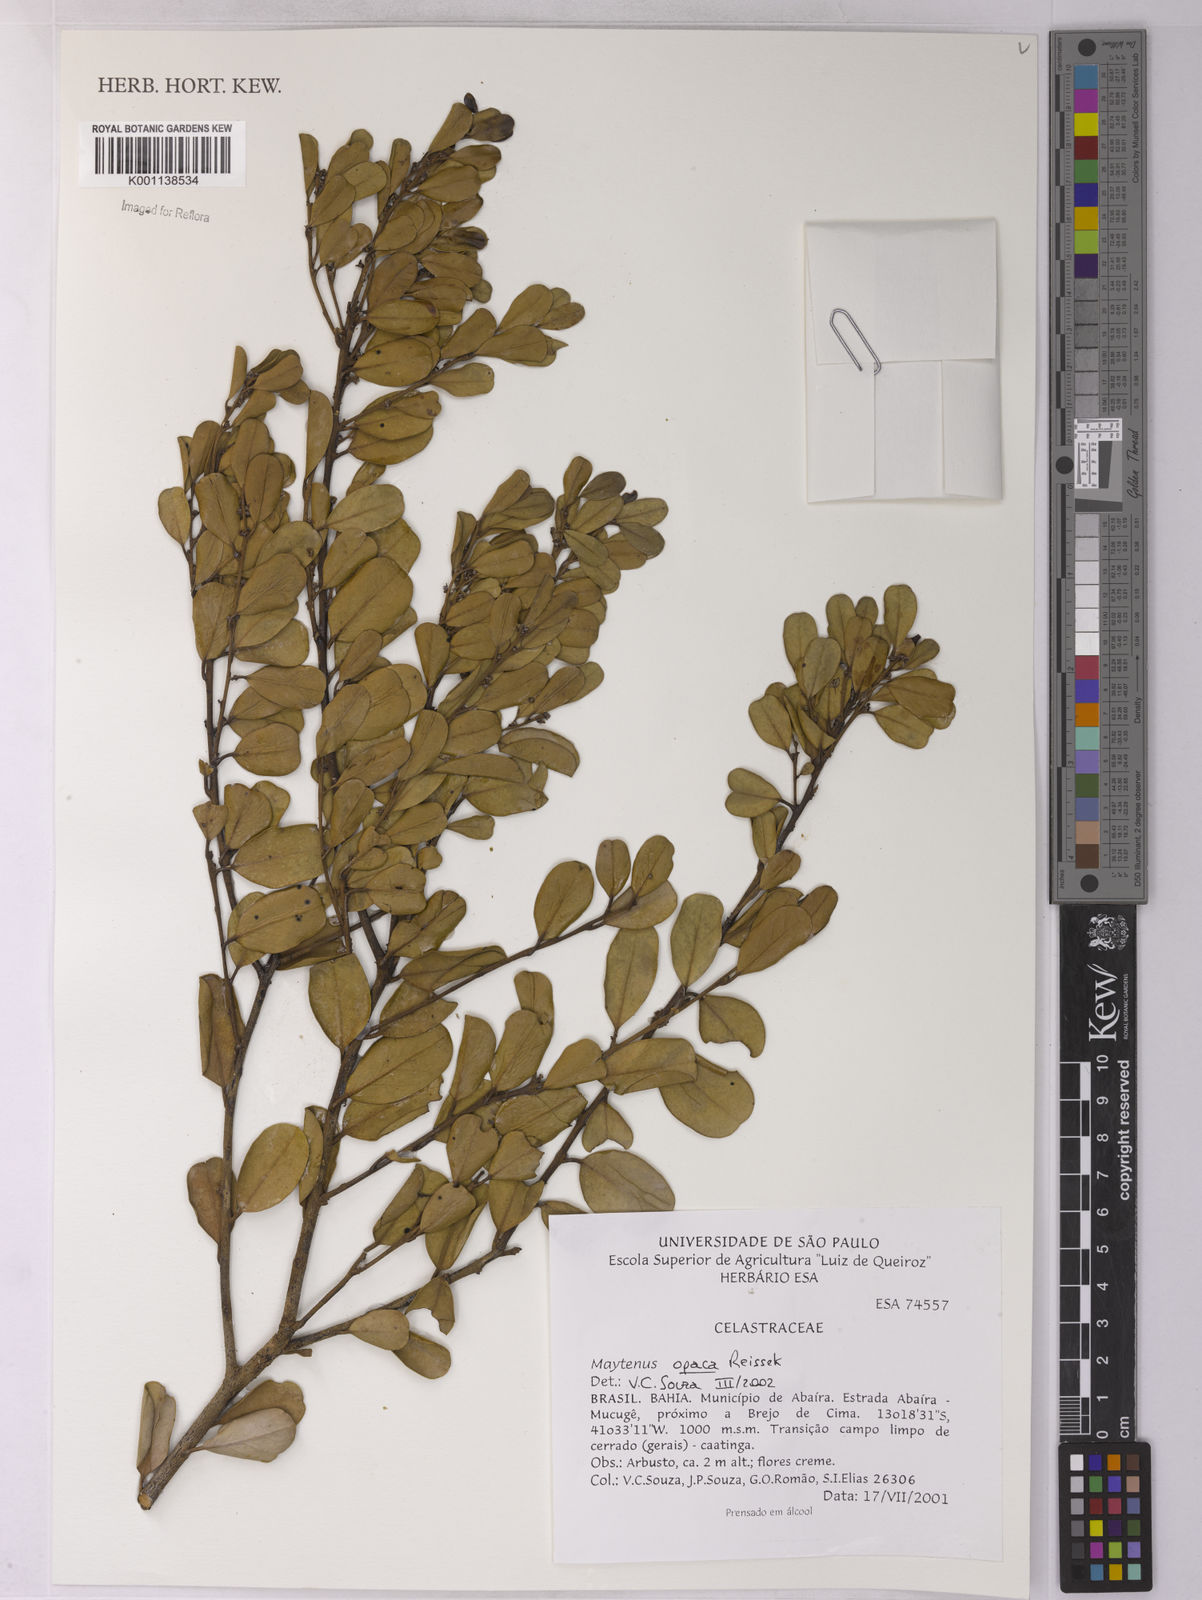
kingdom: Plantae
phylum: Tracheophyta
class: Magnoliopsida
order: Celastrales
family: Celastraceae
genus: Monteverdia
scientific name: Monteverdia opaca
